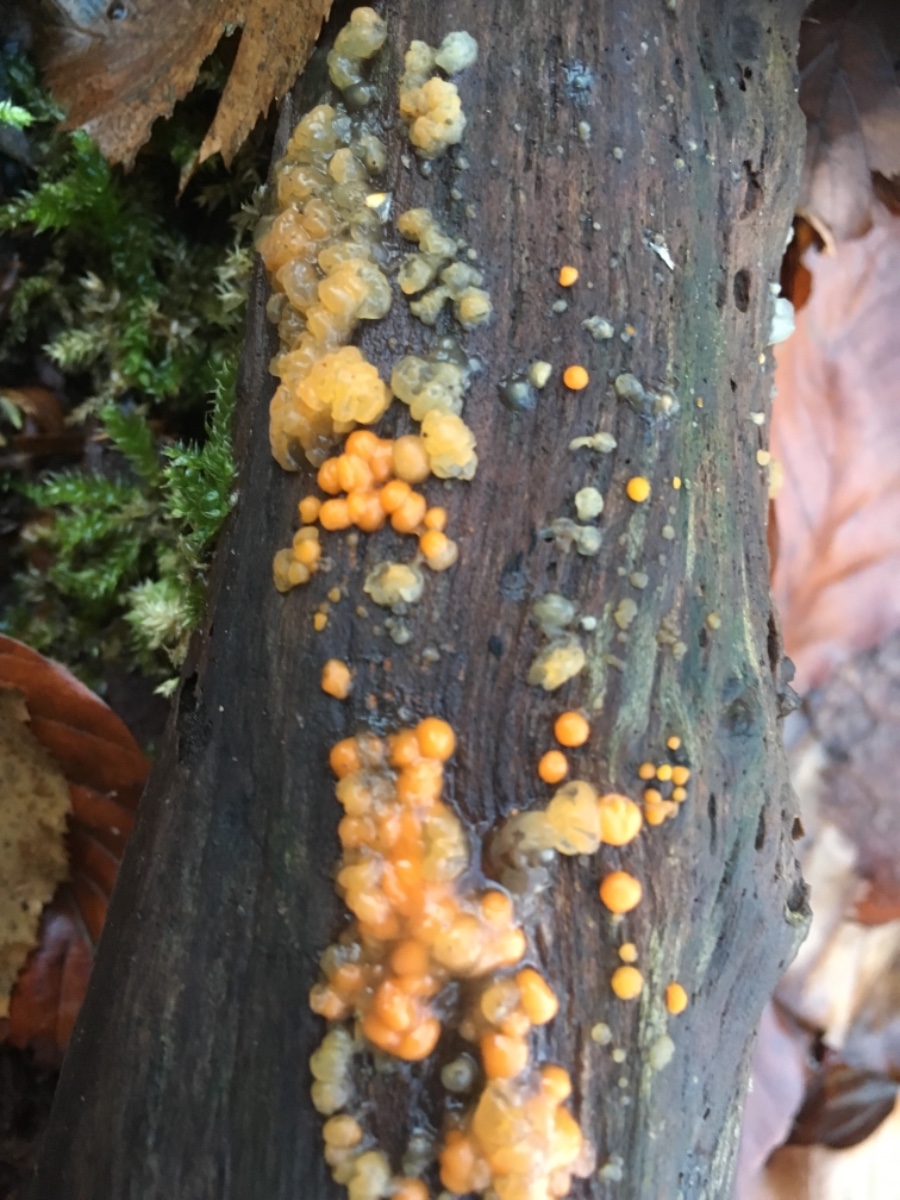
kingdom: Fungi
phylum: Basidiomycota
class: Dacrymycetes
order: Dacrymycetales
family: Dacrymycetaceae
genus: Dacrymyces
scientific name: Dacrymyces stillatus
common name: almindelig tåresvamp
